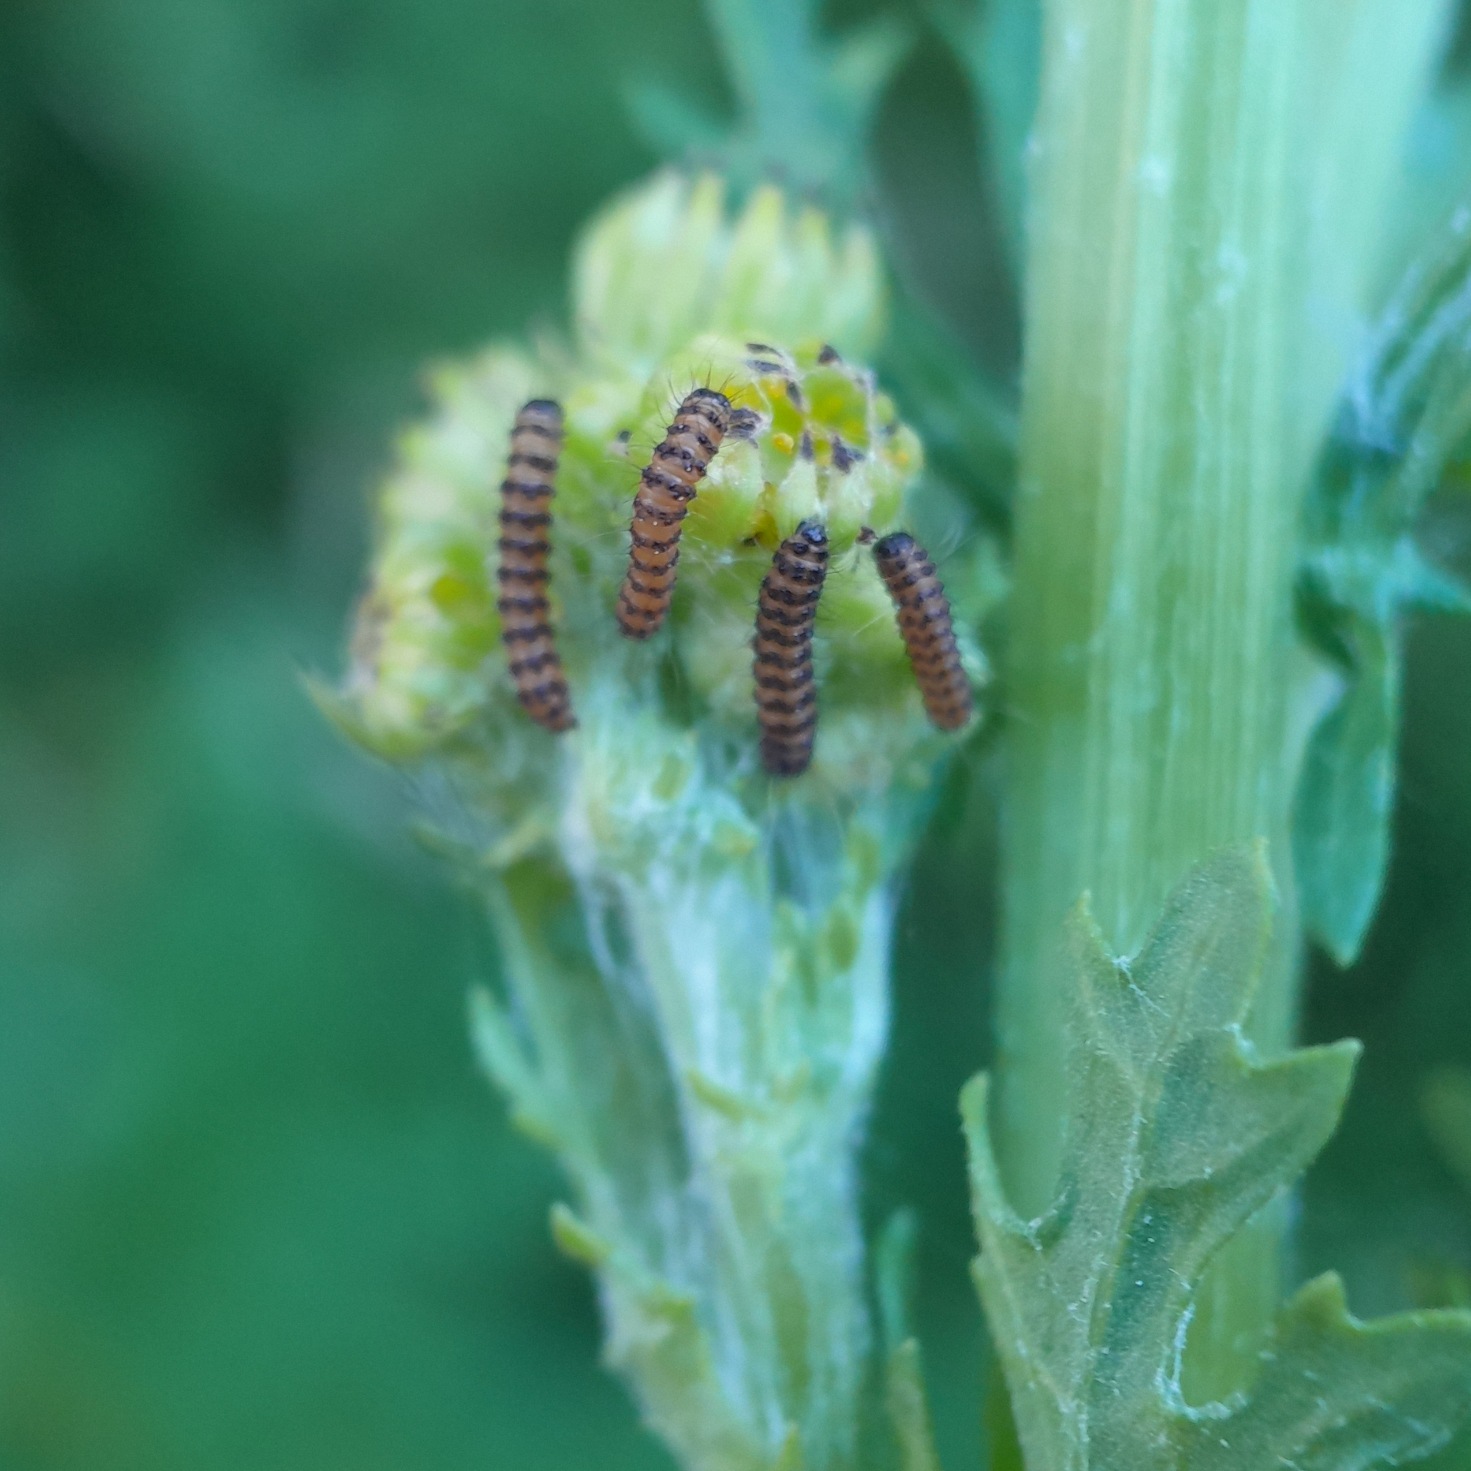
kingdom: Animalia
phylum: Arthropoda
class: Insecta
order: Lepidoptera
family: Erebidae
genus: Tyria
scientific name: Tyria jacobaeae
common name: Blodplet
